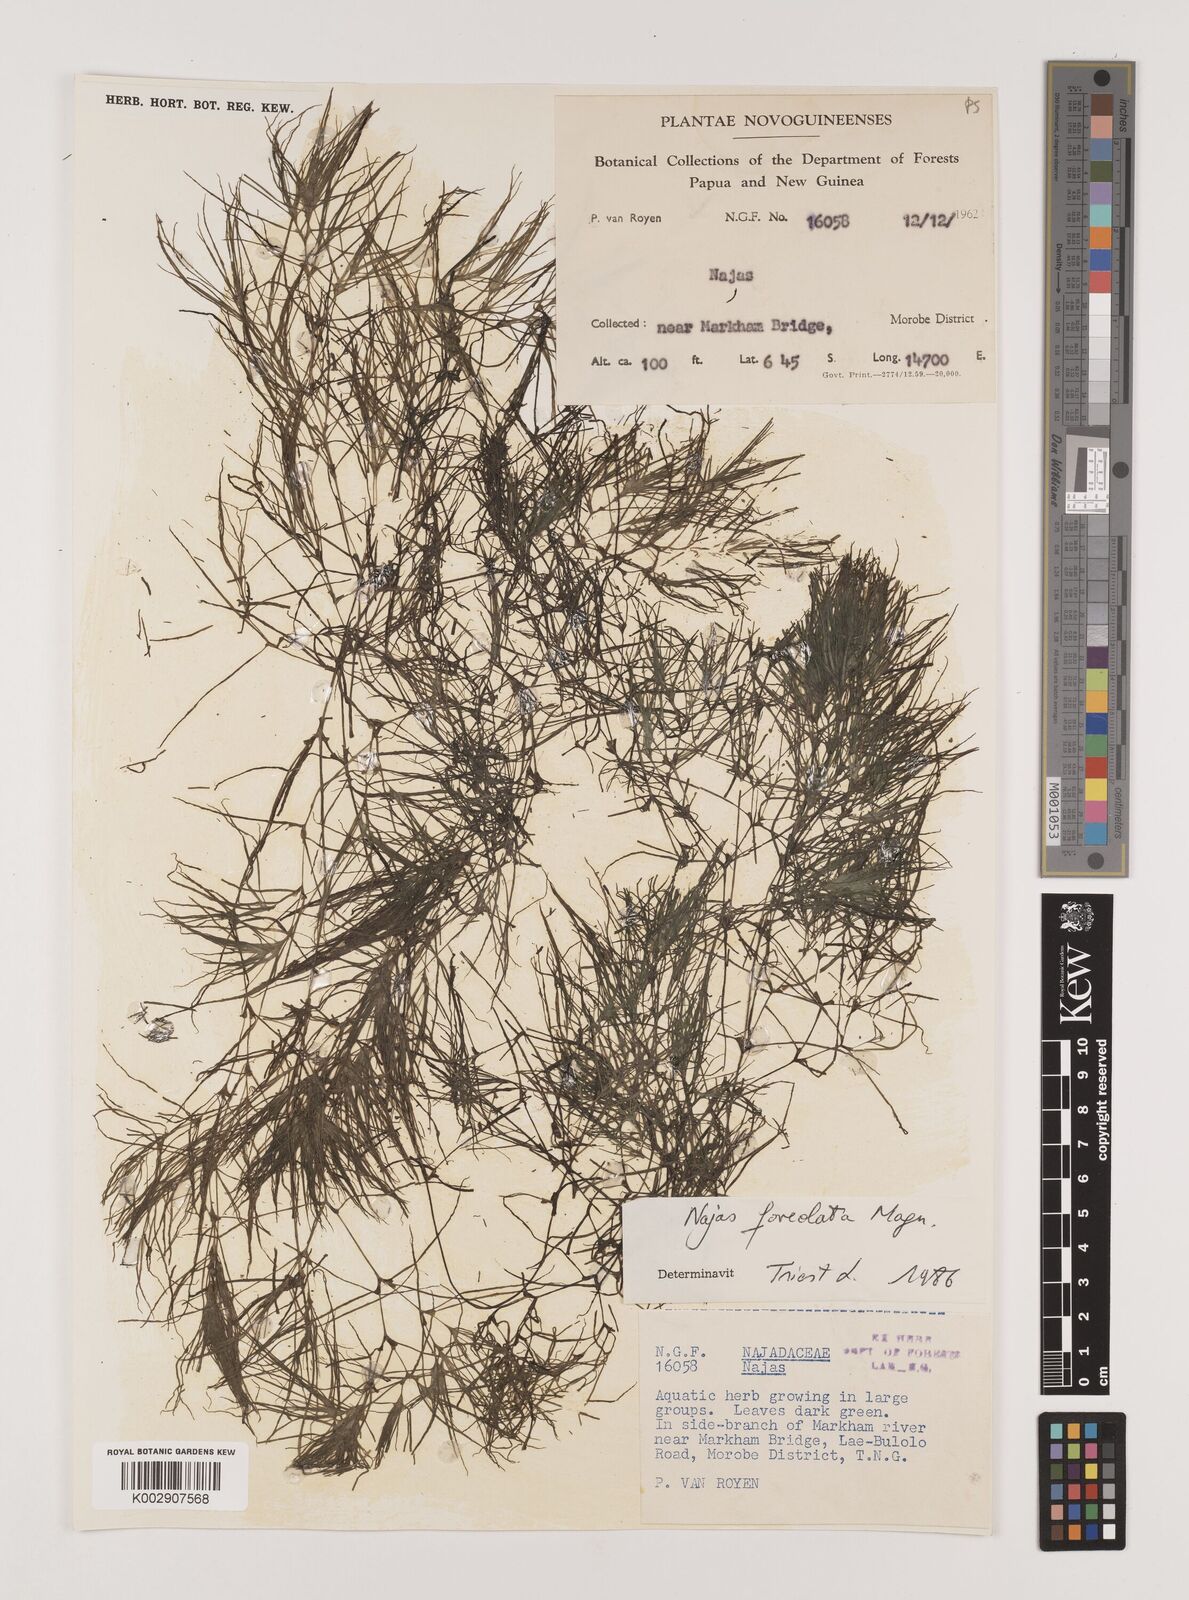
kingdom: Plantae
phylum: Tracheophyta
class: Liliopsida
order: Alismatales
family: Hydrocharitaceae
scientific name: Hydrocharitaceae
